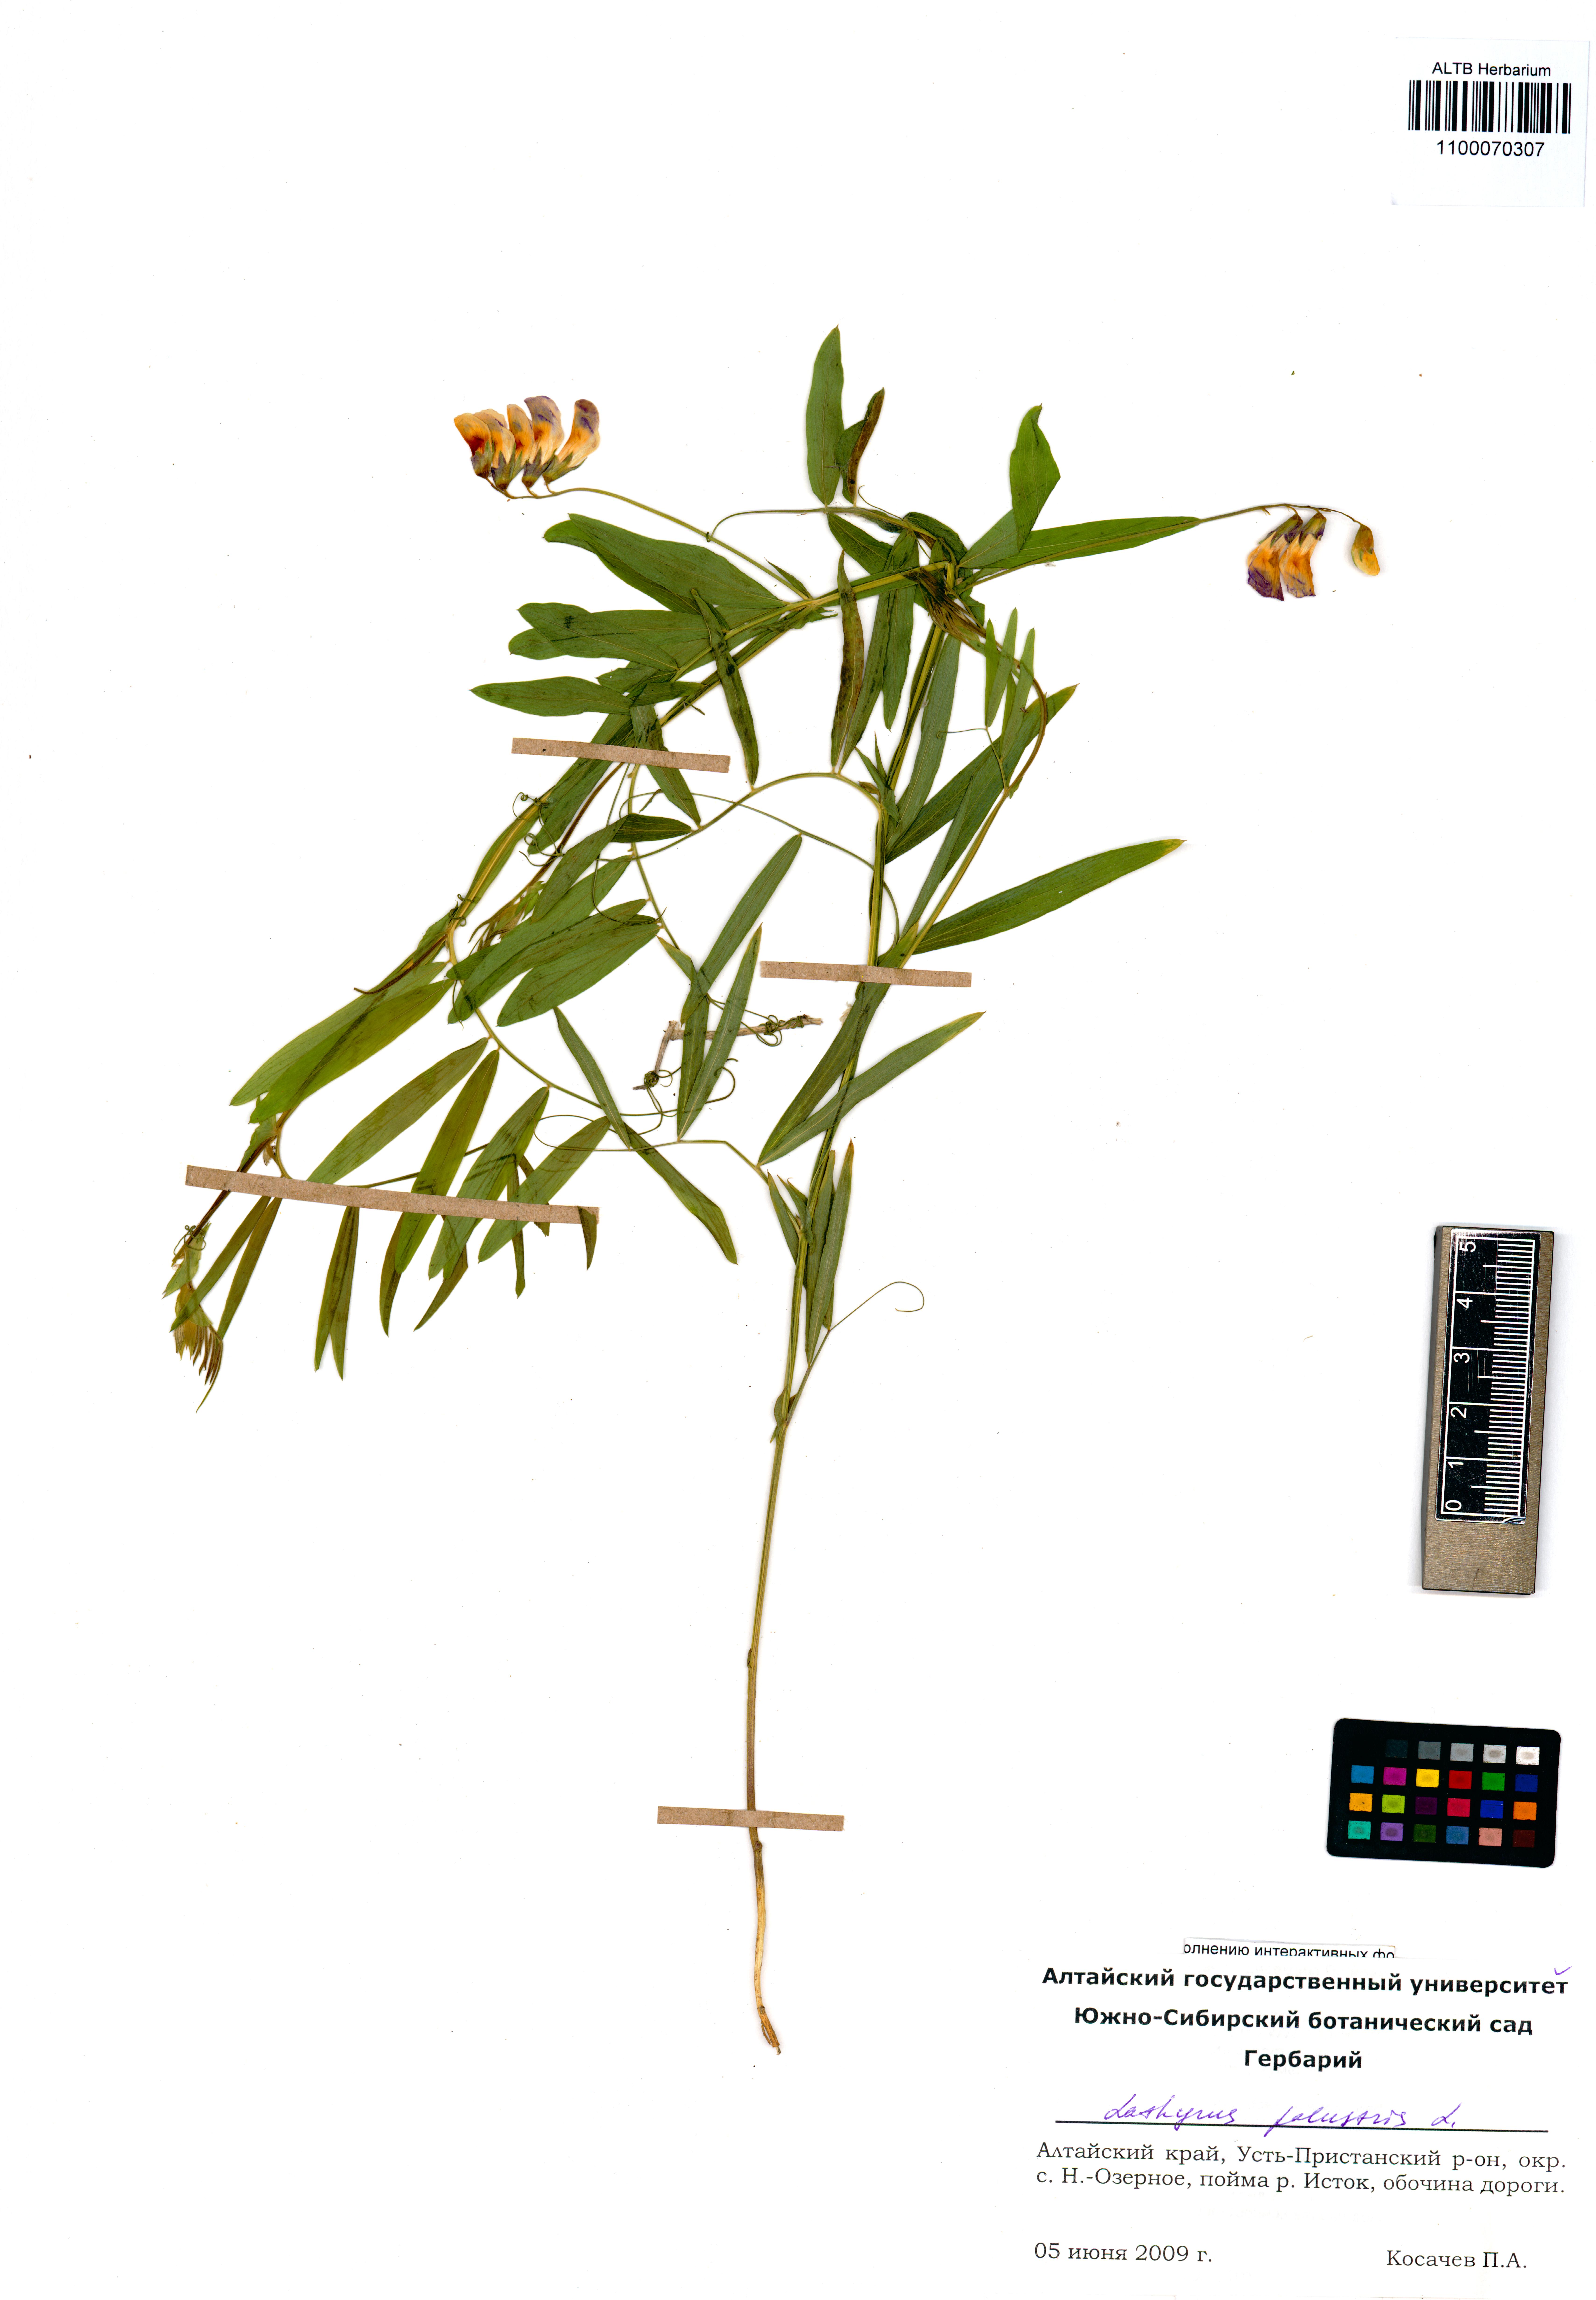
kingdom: Plantae
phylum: Tracheophyta
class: Magnoliopsida
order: Fabales
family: Fabaceae
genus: Lathyrus
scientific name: Lathyrus palustris
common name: Marsh pea
